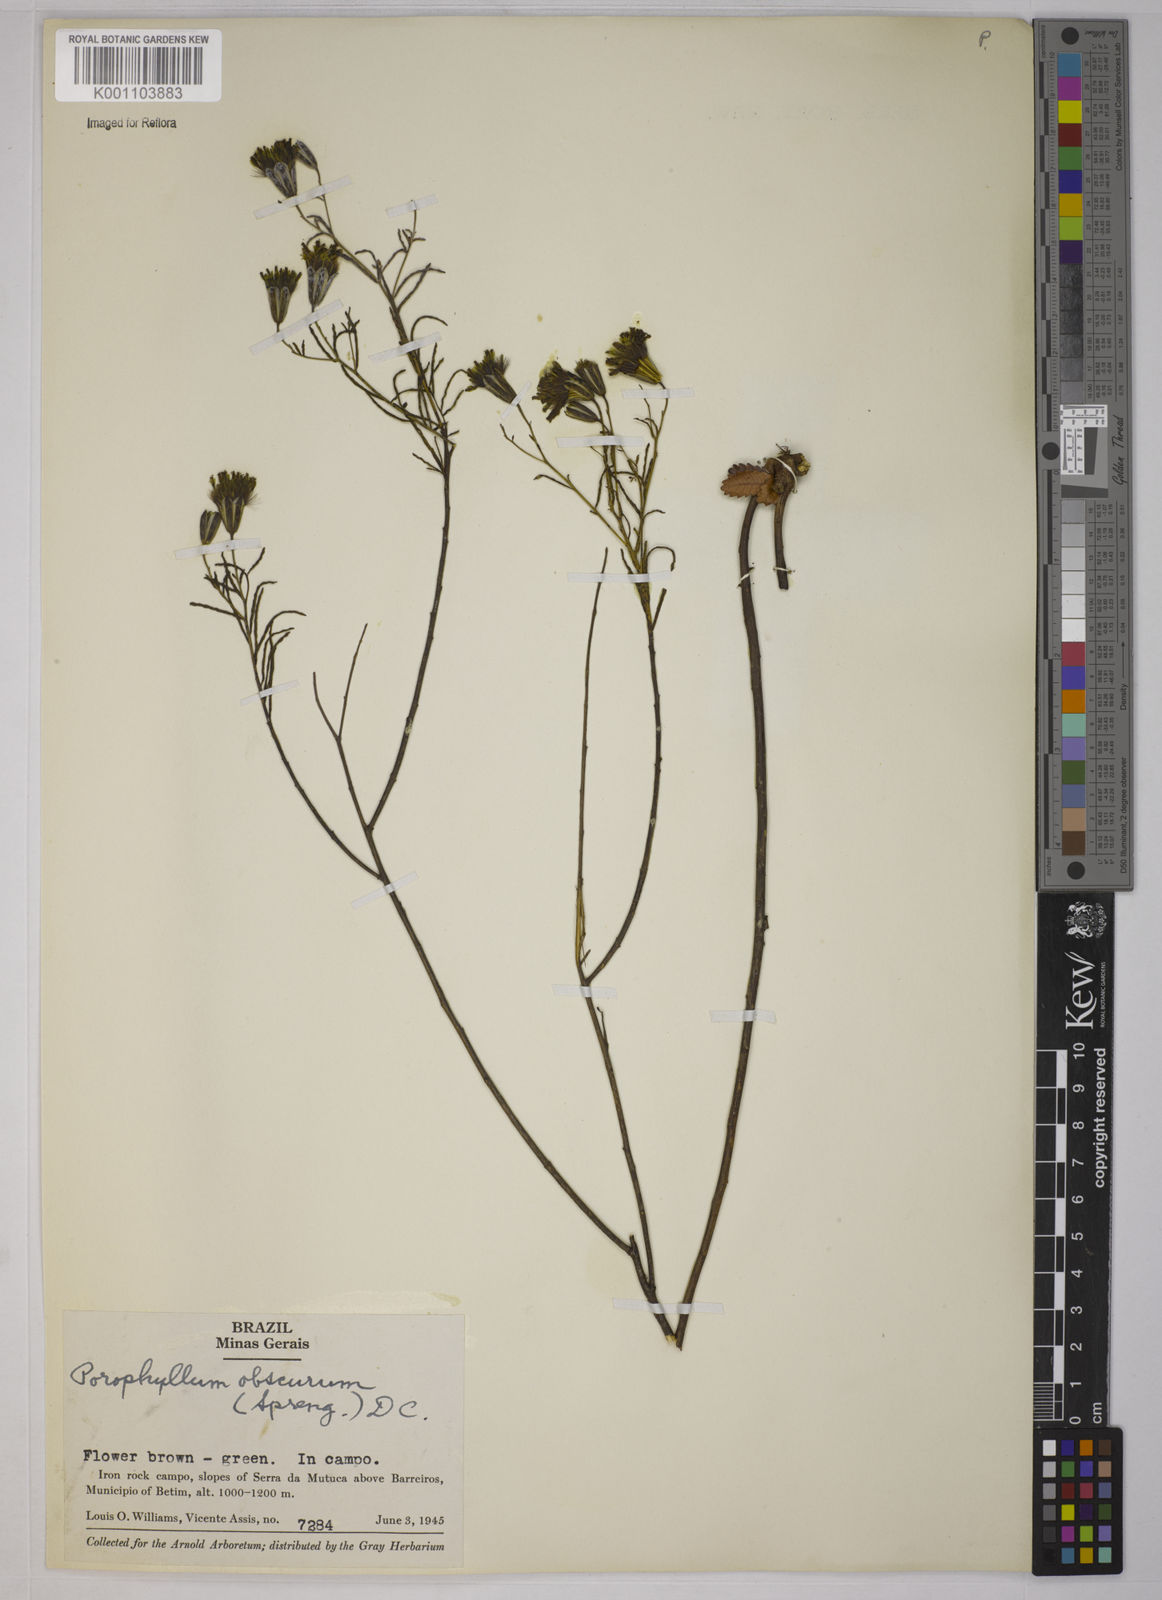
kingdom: Plantae
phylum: Tracheophyta
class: Magnoliopsida
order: Asterales
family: Asteraceae
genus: Porophyllum
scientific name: Porophyllum obscurum
